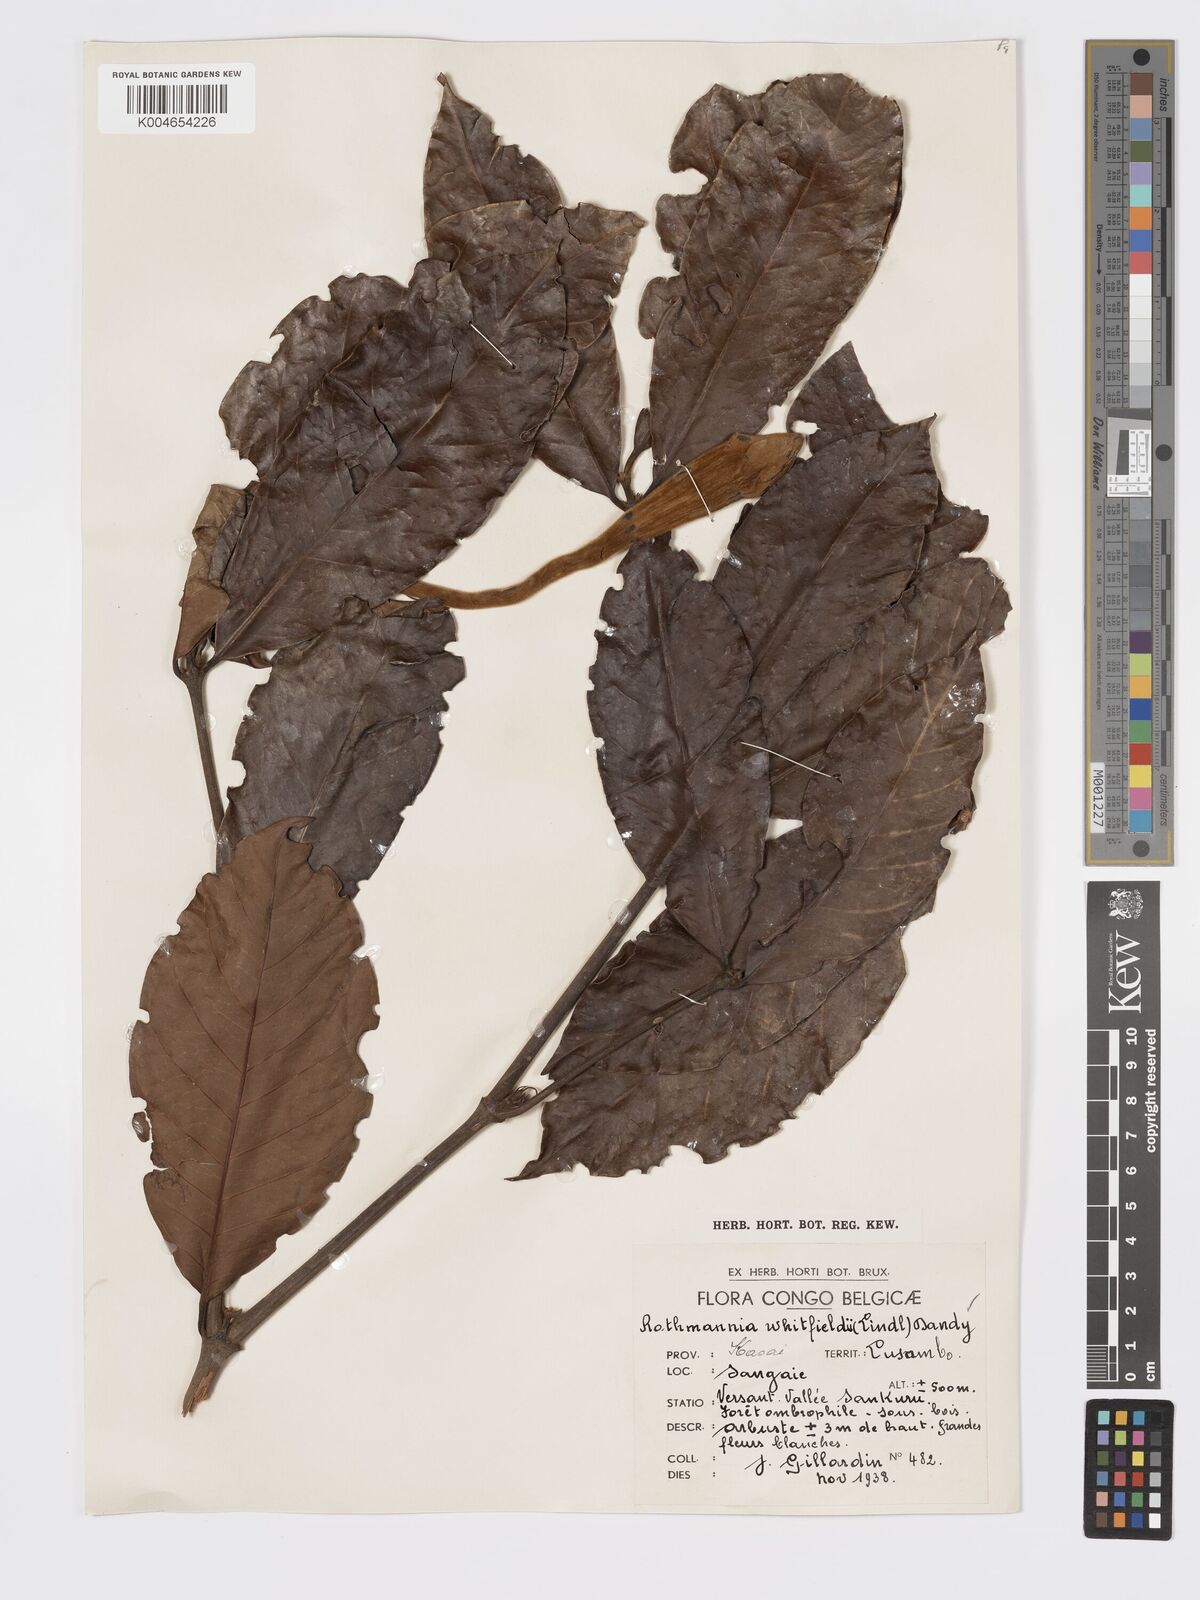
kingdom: Plantae
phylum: Tracheophyta
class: Magnoliopsida
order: Gentianales
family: Rubiaceae
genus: Rothmannia
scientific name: Rothmannia whitfieldii
